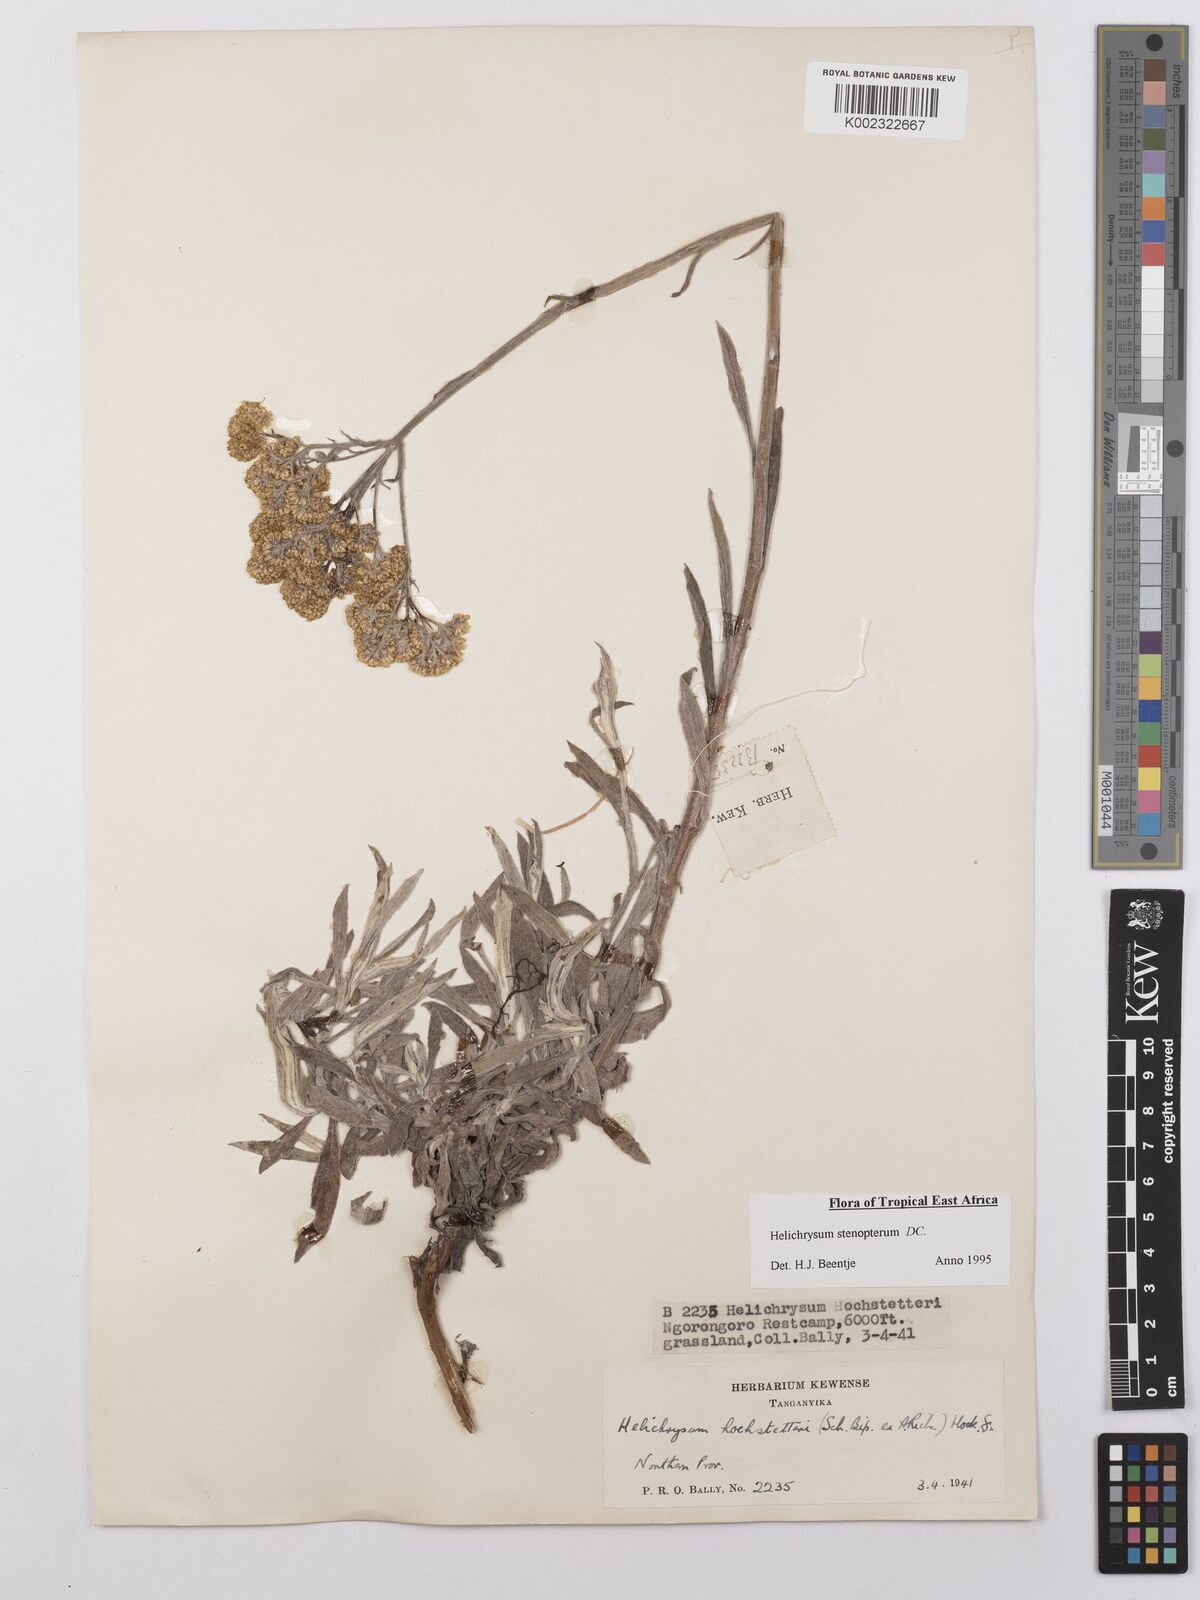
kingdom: Plantae
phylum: Tracheophyta
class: Magnoliopsida
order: Asterales
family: Asteraceae
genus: Helichrysum
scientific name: Helichrysum stenopterum
